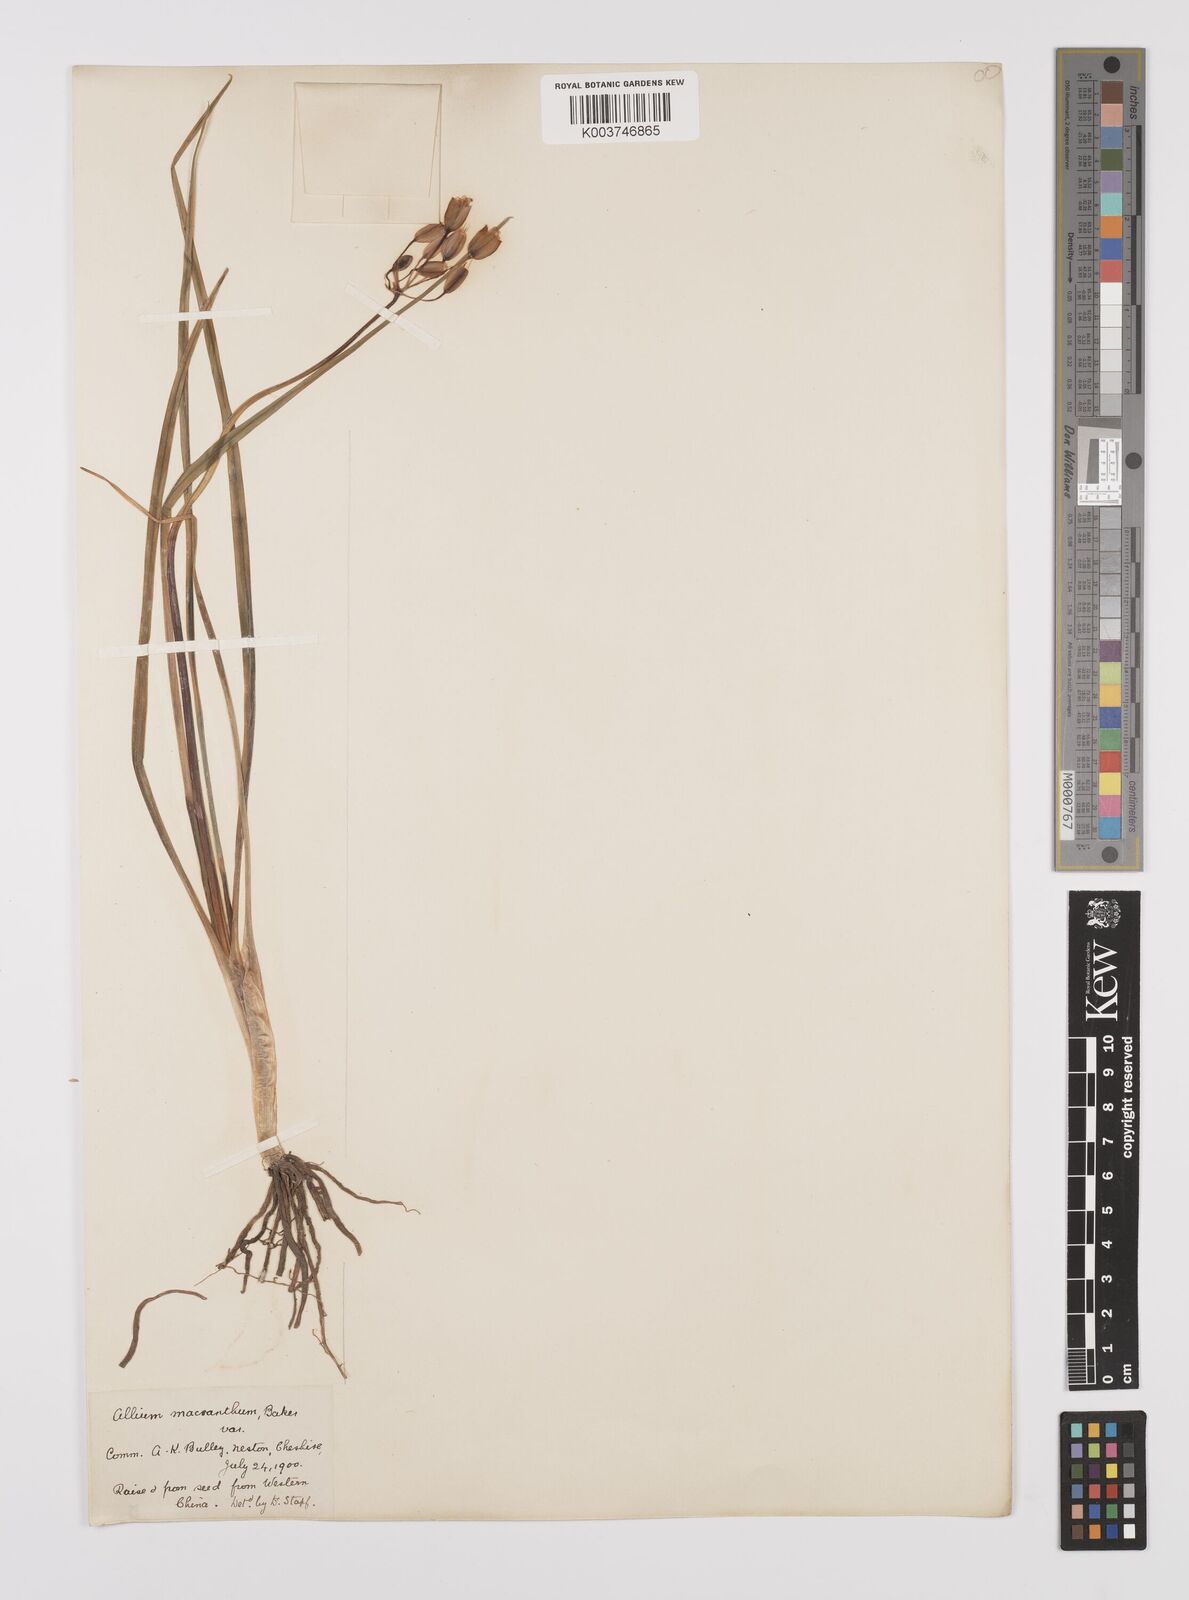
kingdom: Plantae
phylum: Tracheophyta
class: Liliopsida
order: Asparagales
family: Amaryllidaceae
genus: Allium
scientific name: Allium macranthum
